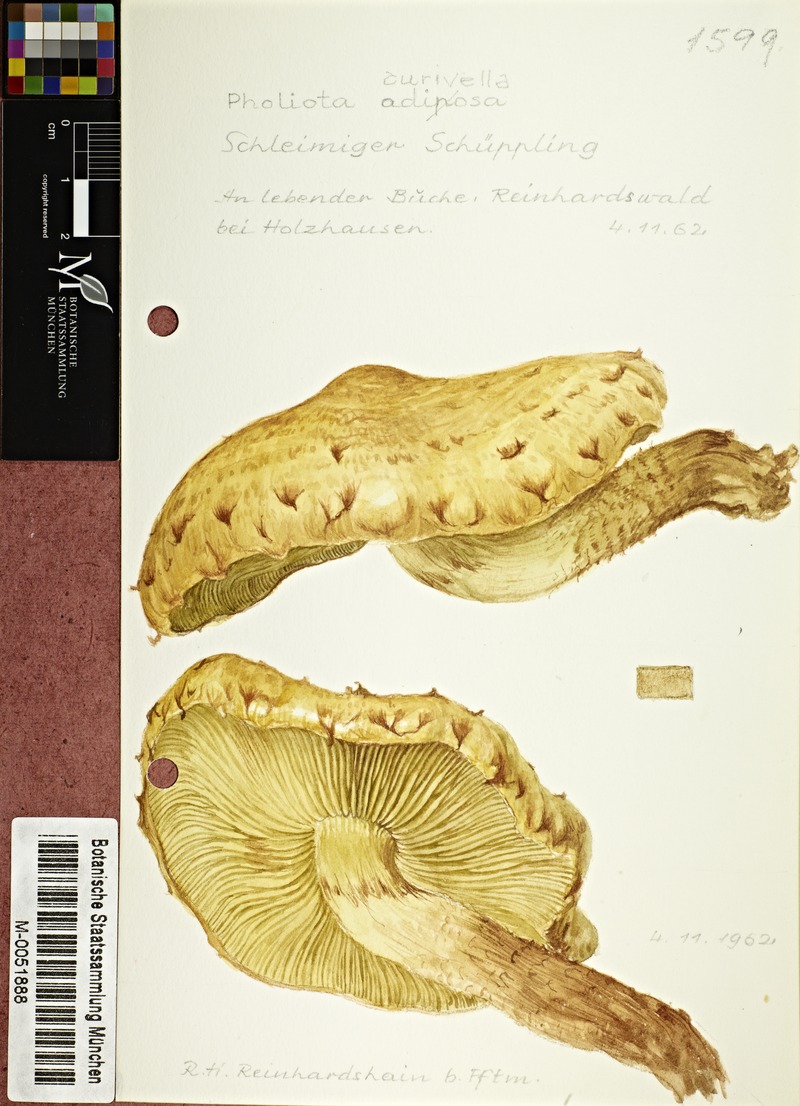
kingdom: Fungi
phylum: Basidiomycota
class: Agaricomycetes
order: Agaricales
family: Strophariaceae
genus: Pholiota
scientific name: Pholiota aurivella
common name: Golden scalycap
